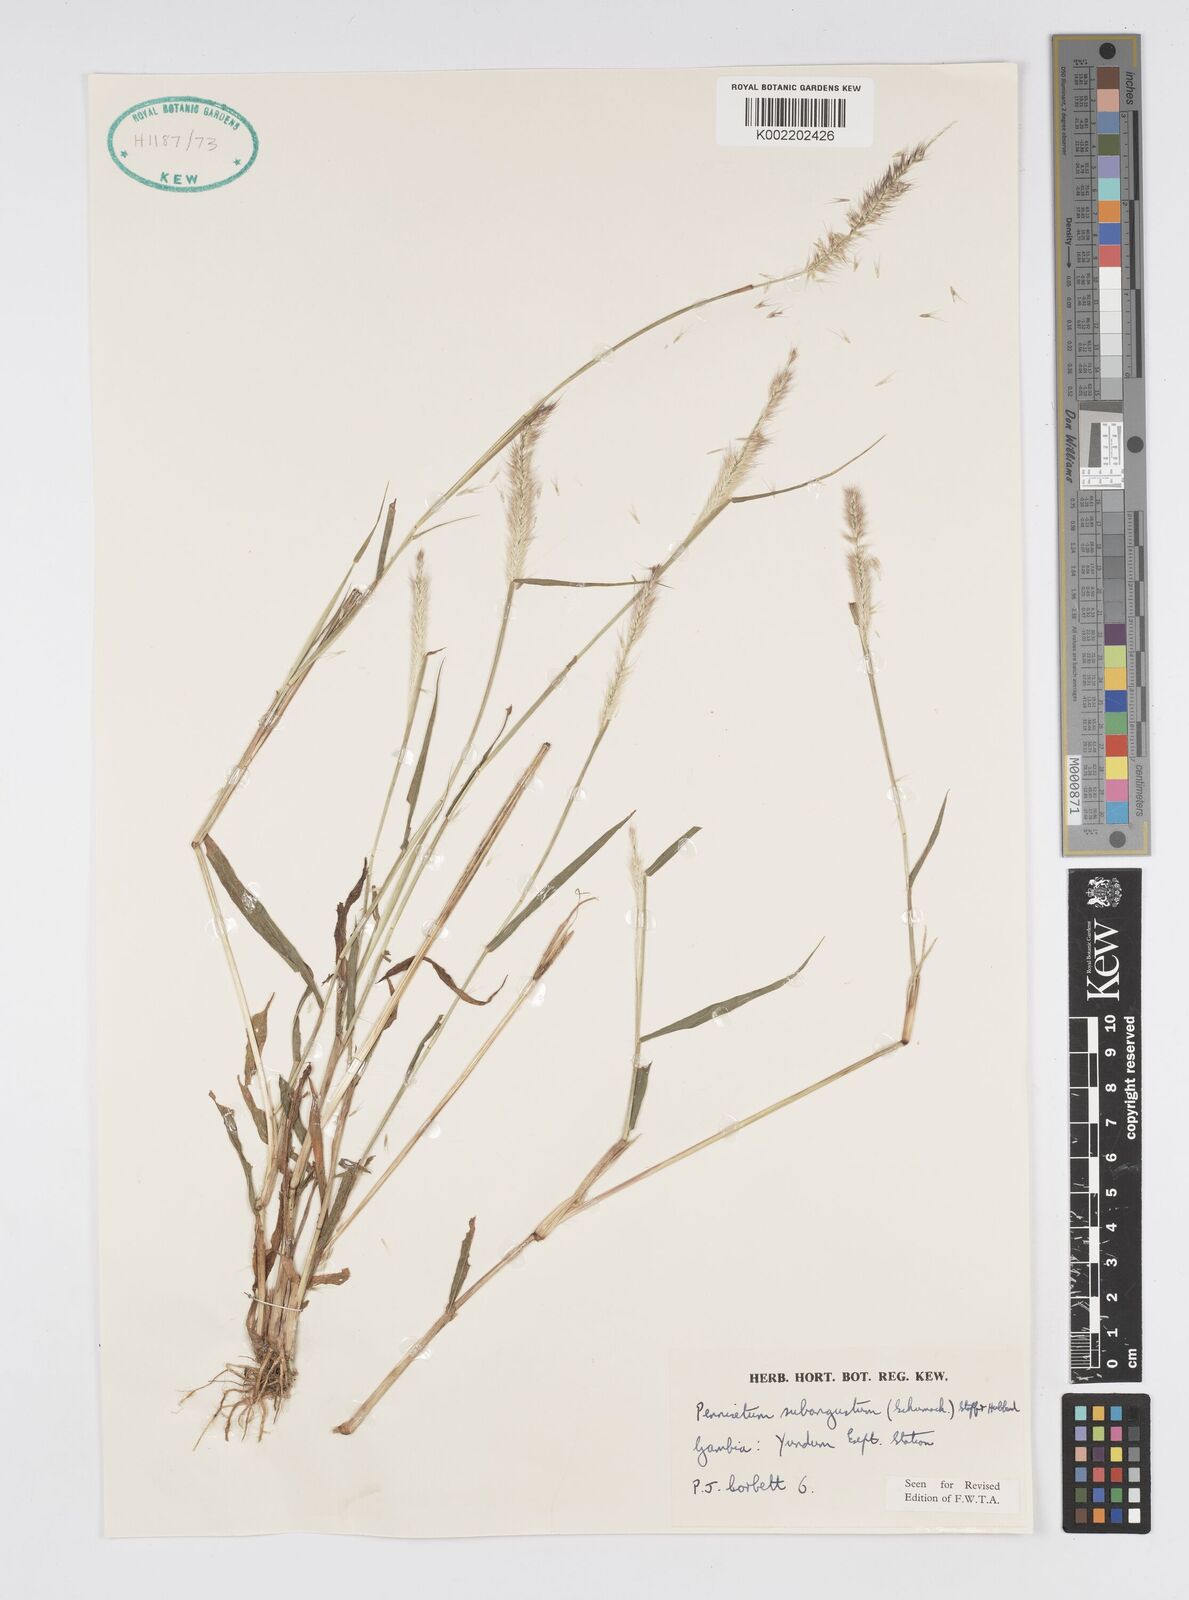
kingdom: Plantae
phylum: Tracheophyta
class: Liliopsida
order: Poales
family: Poaceae
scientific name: Poaceae
